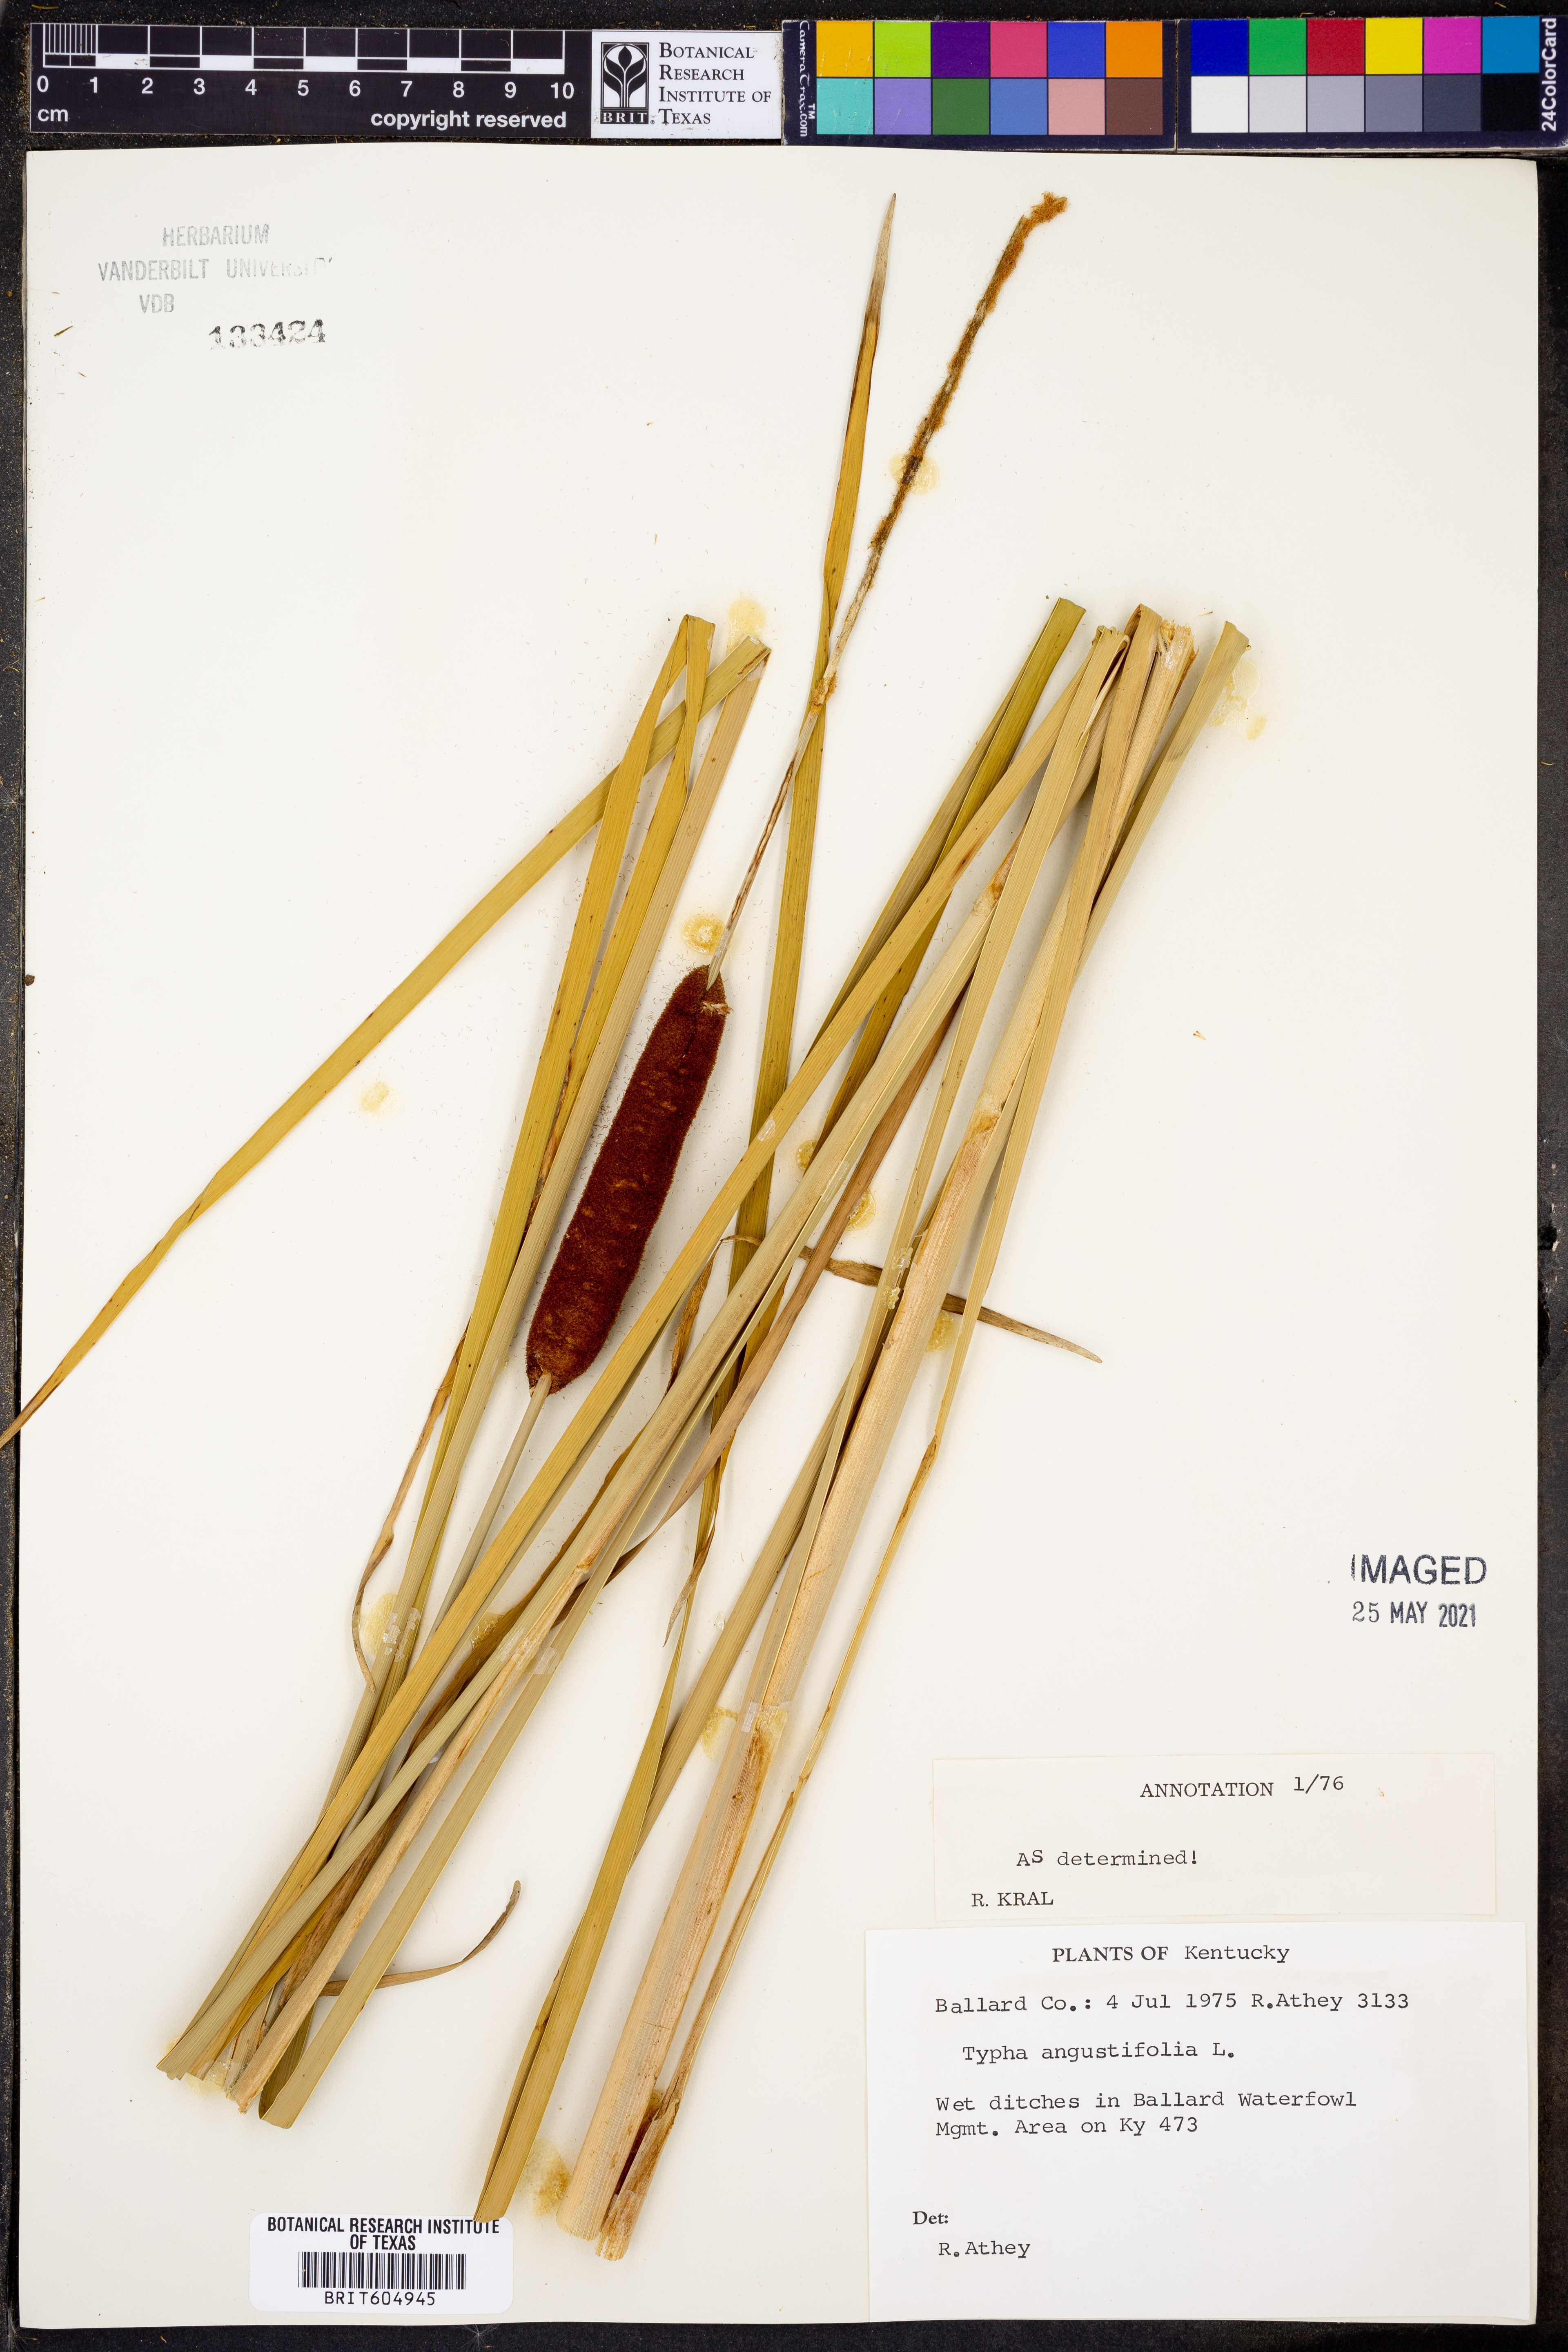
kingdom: Plantae
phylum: Tracheophyta
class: Liliopsida
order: Poales
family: Typhaceae
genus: Typha
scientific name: Typha angustifolia
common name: Lesser bulrush
